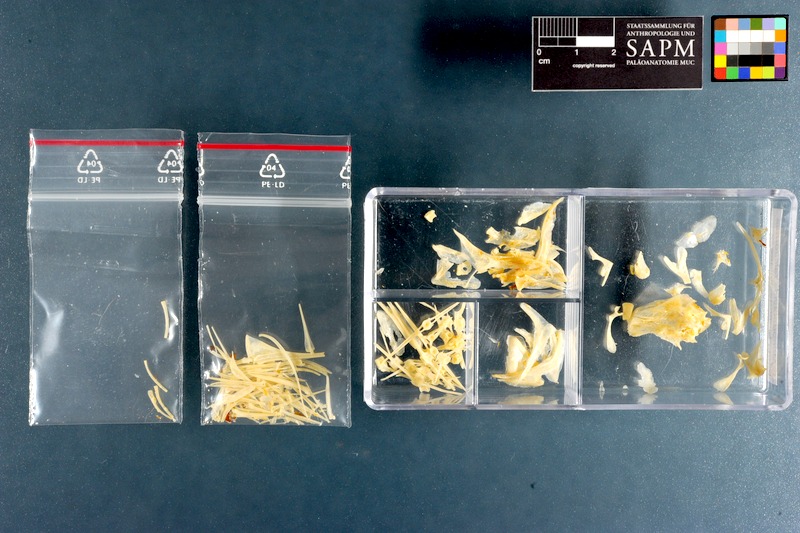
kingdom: Animalia
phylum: Chordata
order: Perciformes
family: Monodactylidae
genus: Monodactylus
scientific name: Monodactylus falciformis
